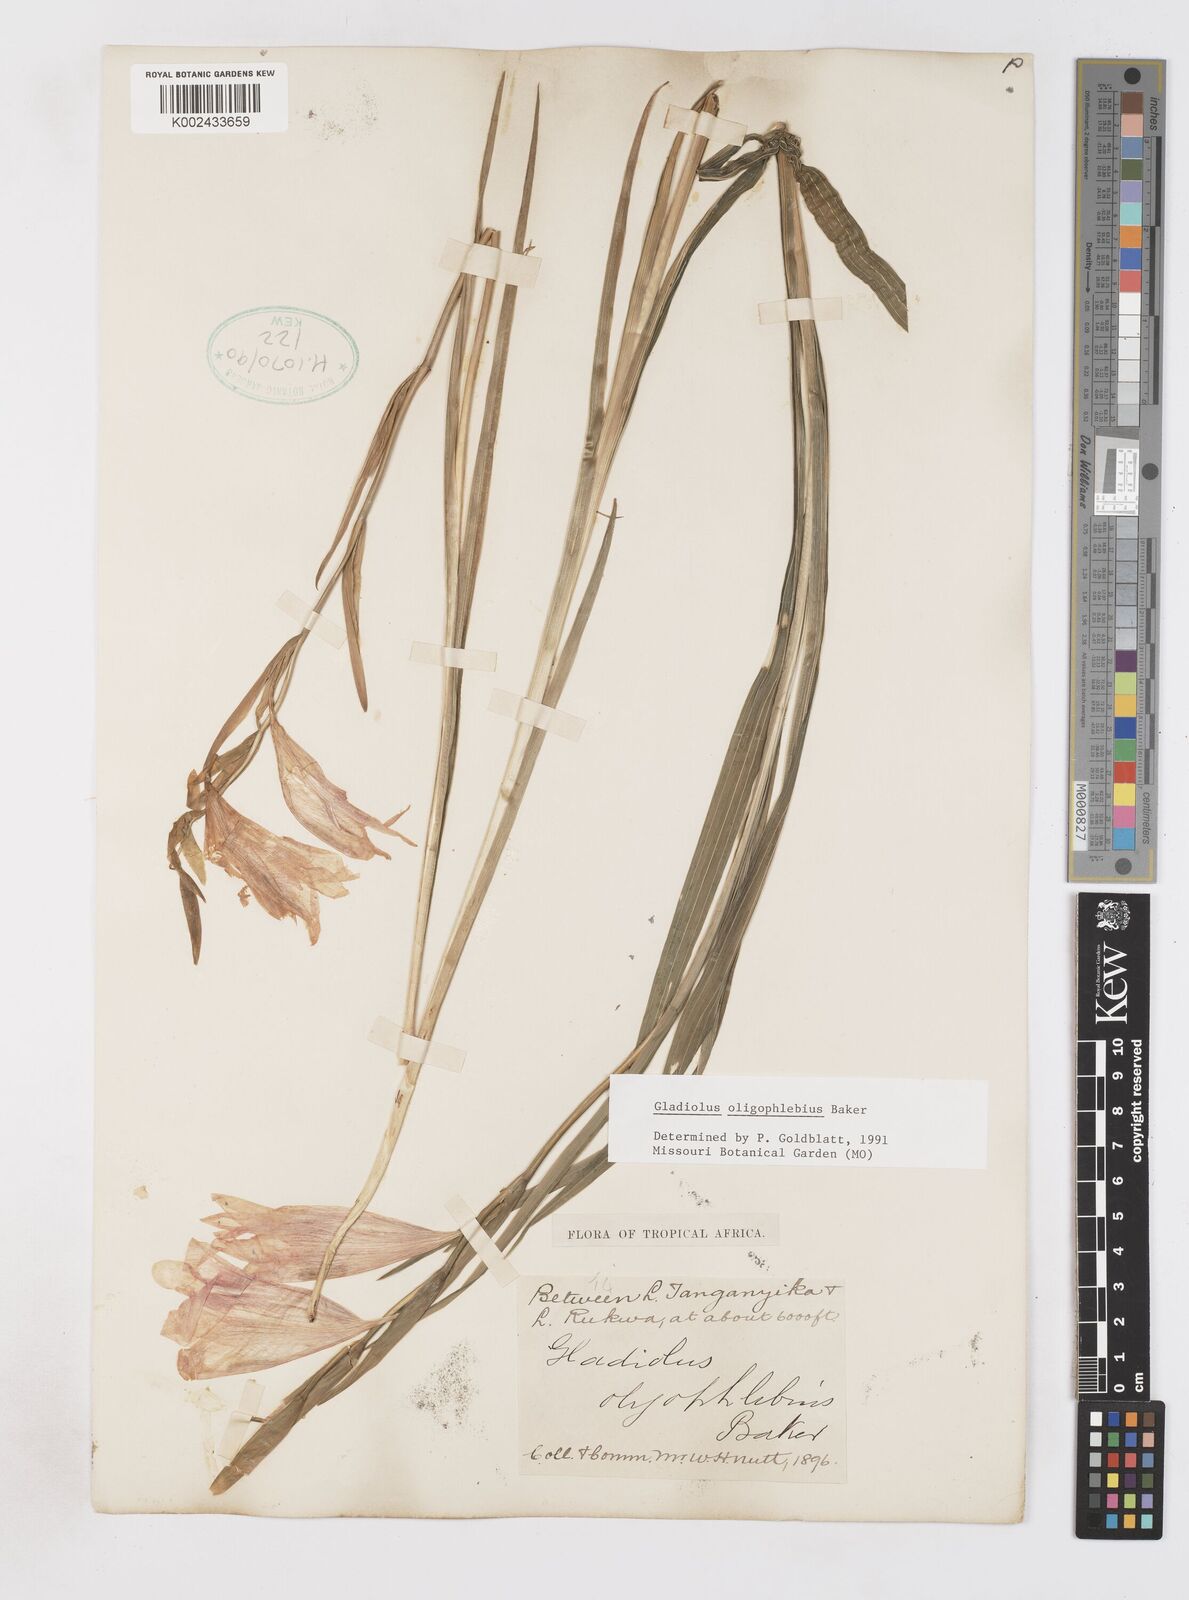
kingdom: Plantae
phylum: Tracheophyta
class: Liliopsida
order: Asparagales
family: Iridaceae
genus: Gladiolus
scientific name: Gladiolus oligophlebius
